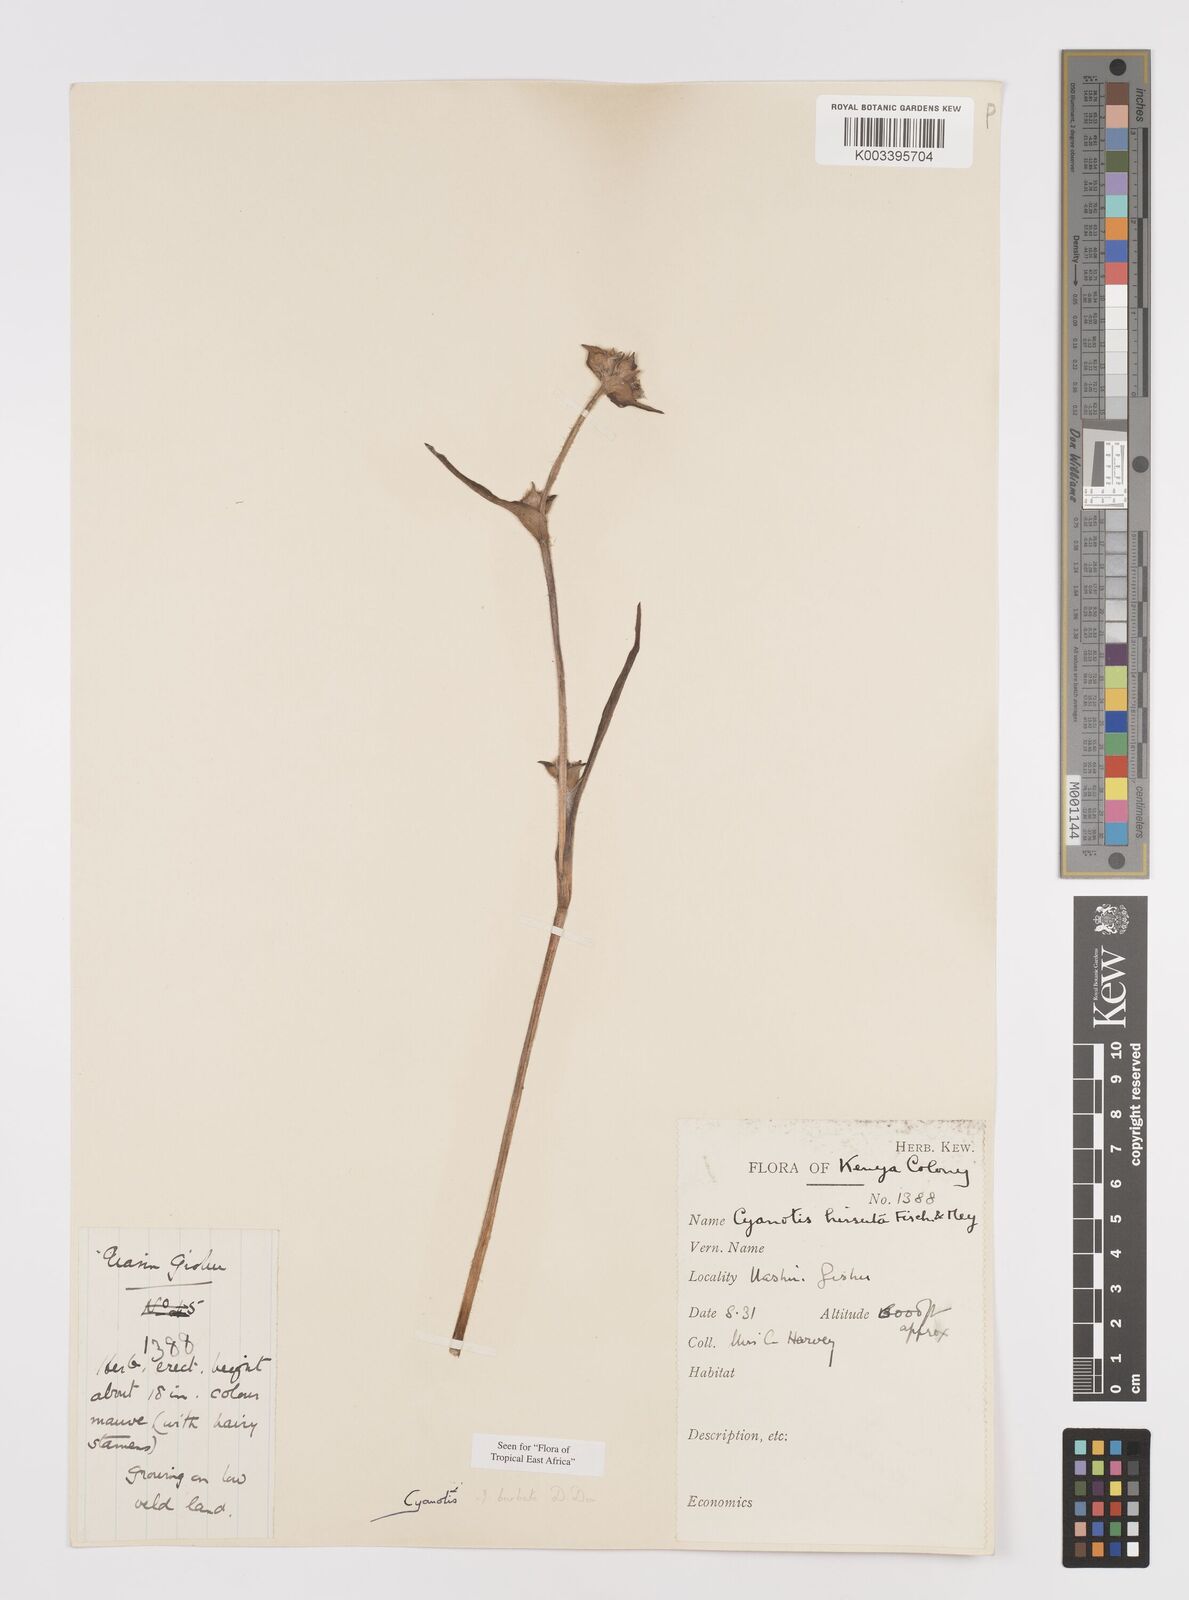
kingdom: Plantae
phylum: Tracheophyta
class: Liliopsida
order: Commelinales
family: Commelinaceae
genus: Cyanotis
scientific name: Cyanotis vaga
